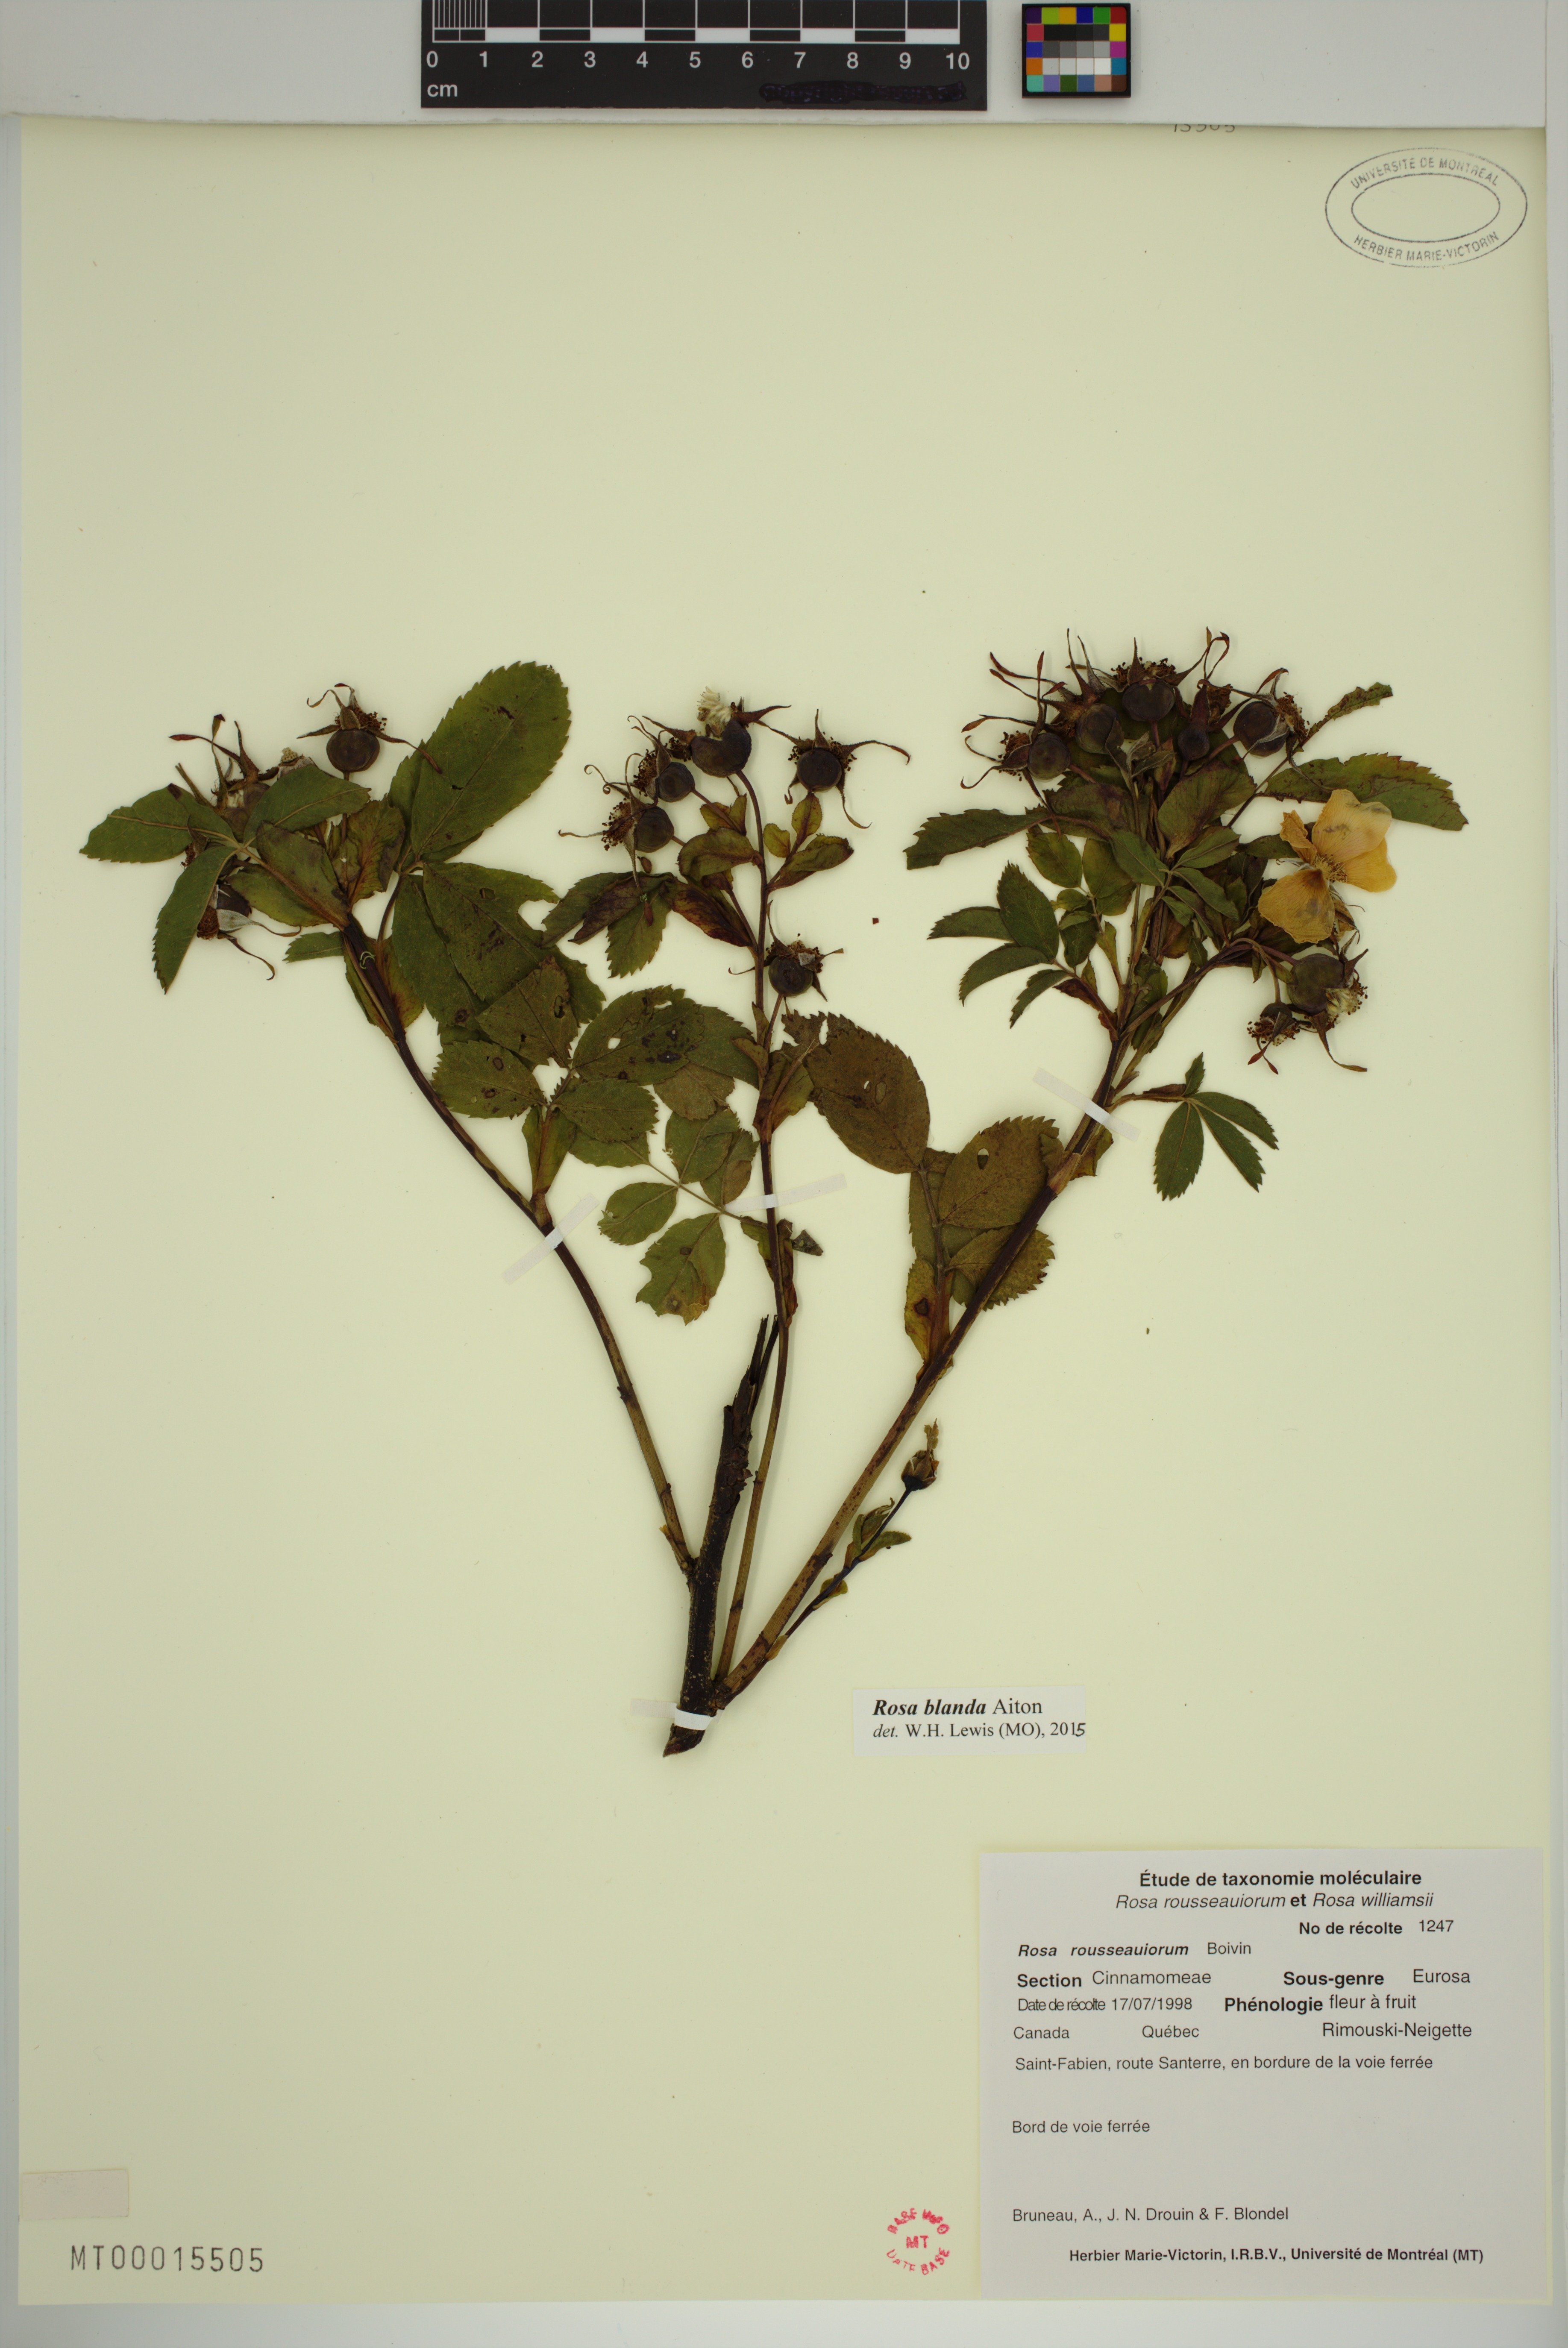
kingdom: Plantae
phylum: Tracheophyta
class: Magnoliopsida
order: Rosales
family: Rosaceae
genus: Rosa
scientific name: Rosa blanda
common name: Smooth rose
